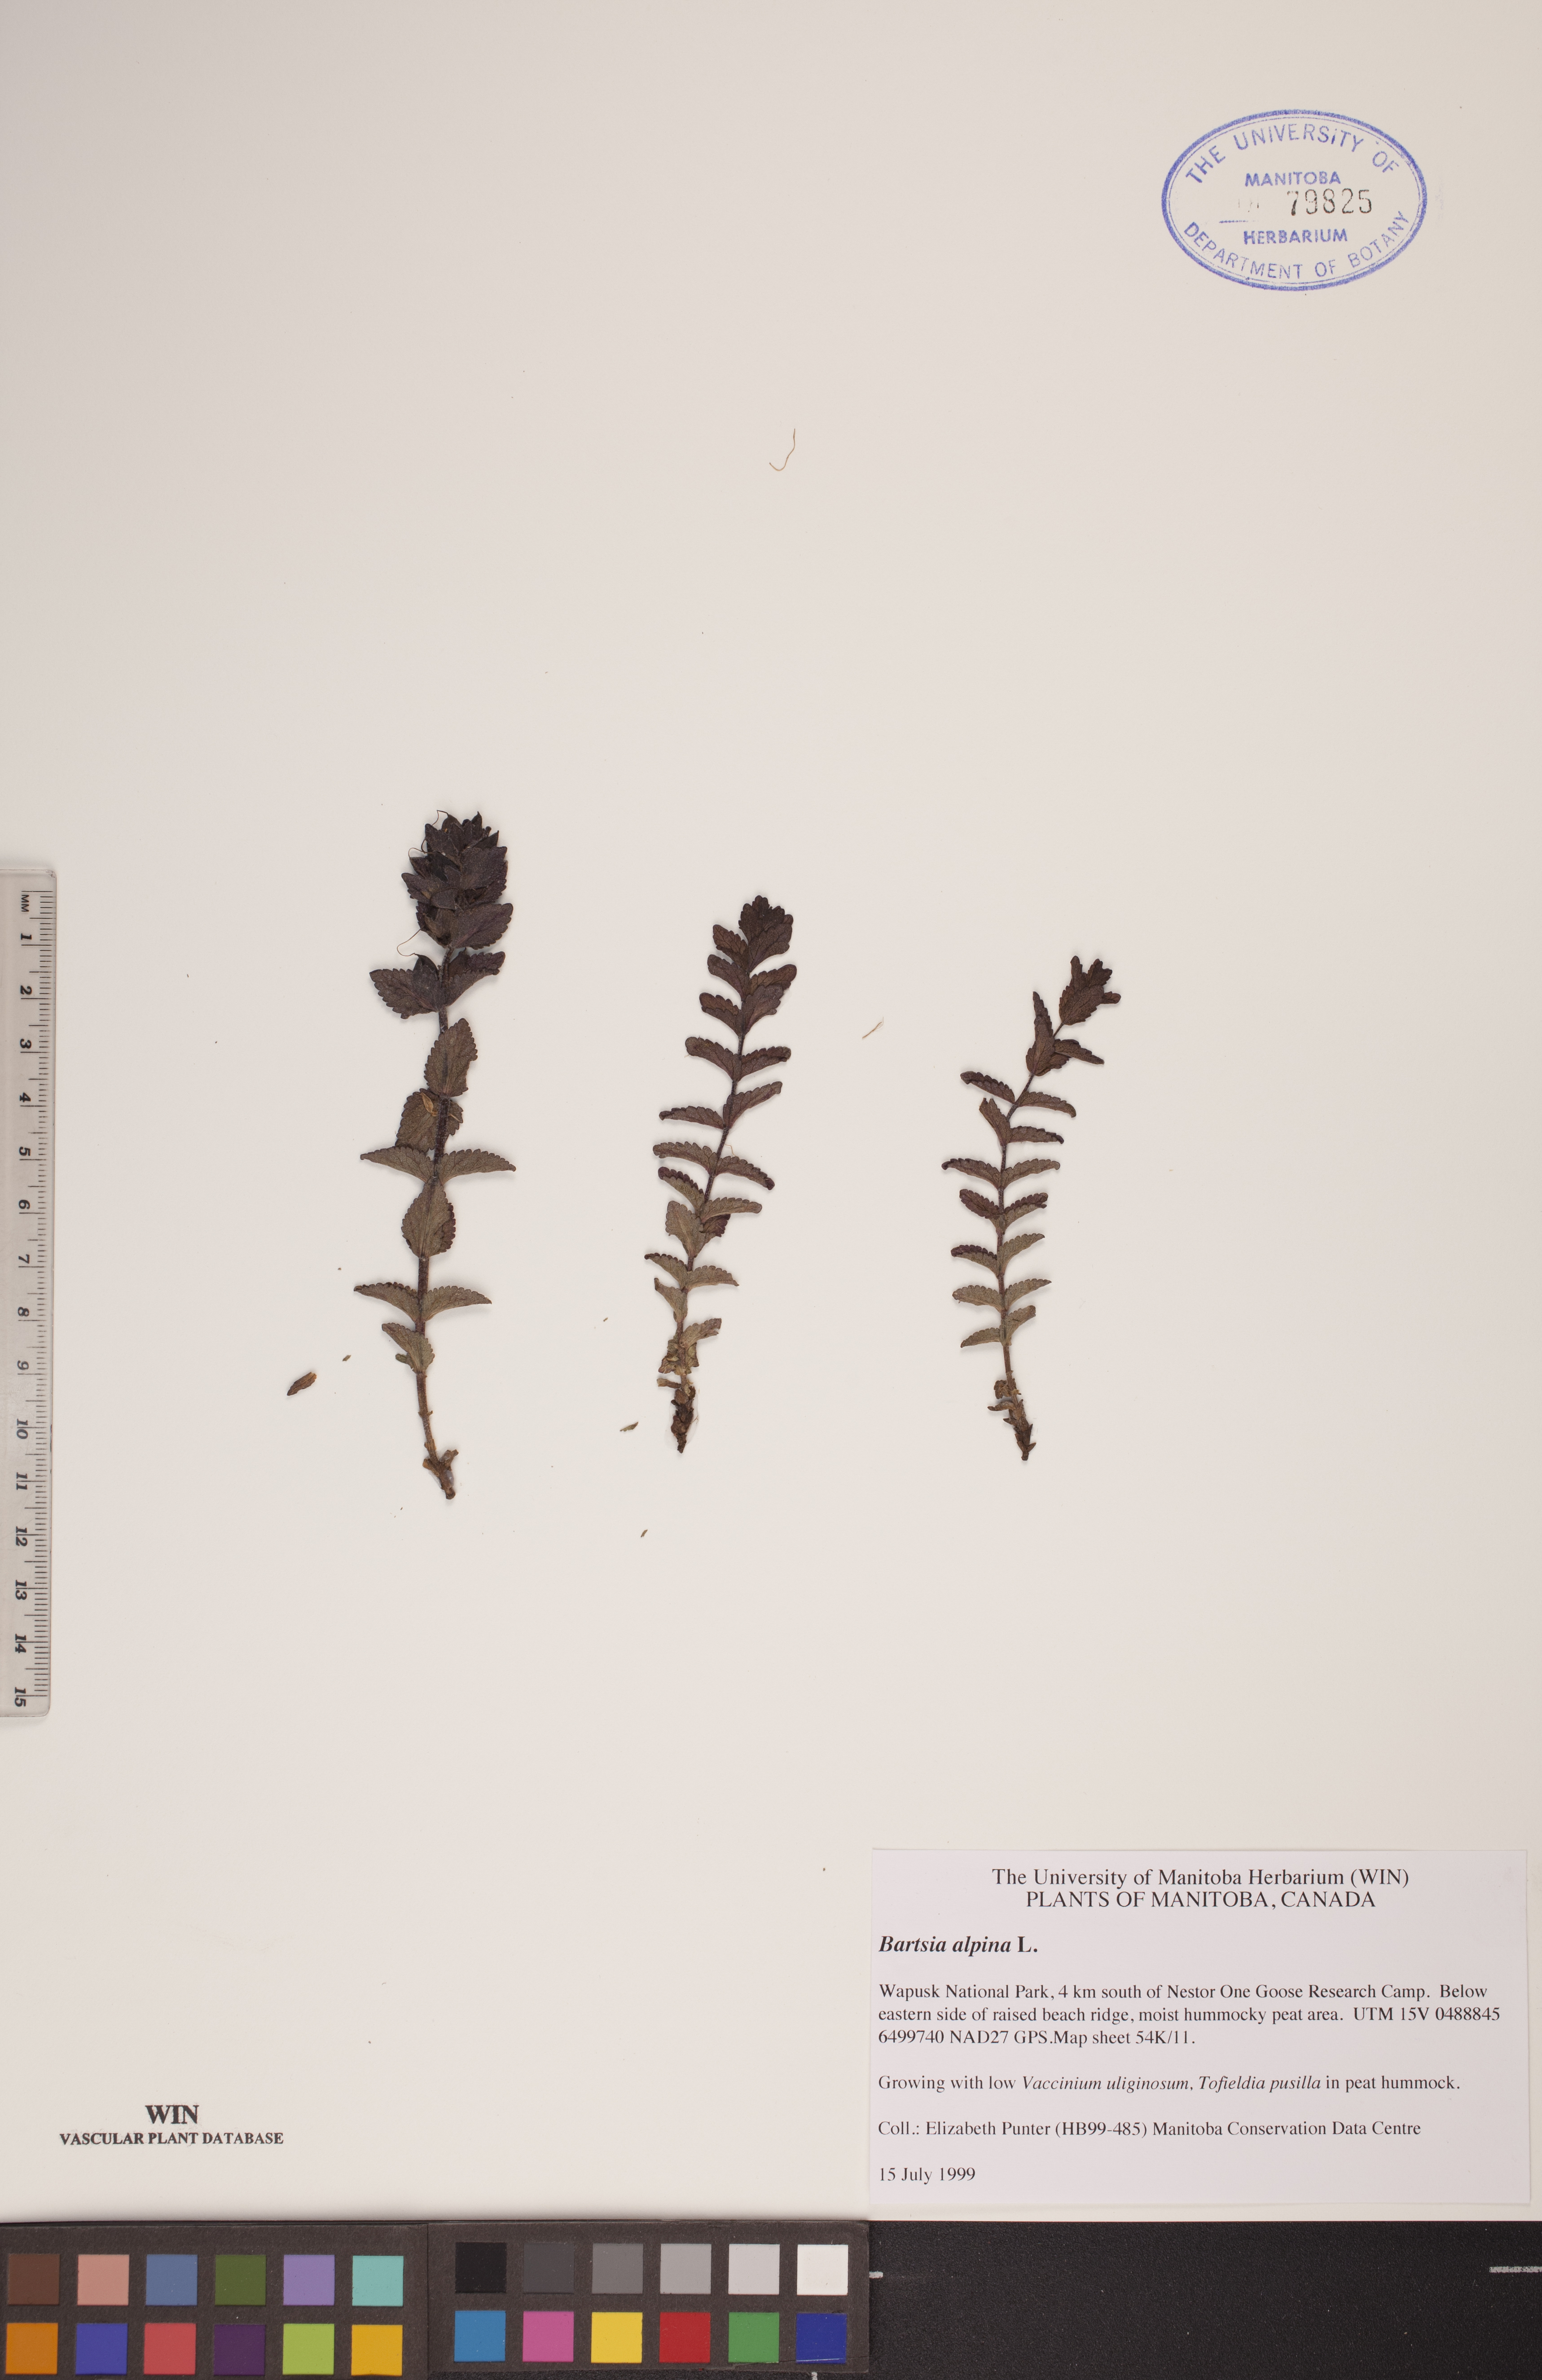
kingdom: Plantae
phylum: Tracheophyta
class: Magnoliopsida
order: Lamiales
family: Orobanchaceae
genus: Bartsia
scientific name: Bartsia alpina
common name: Alpine bartsia
